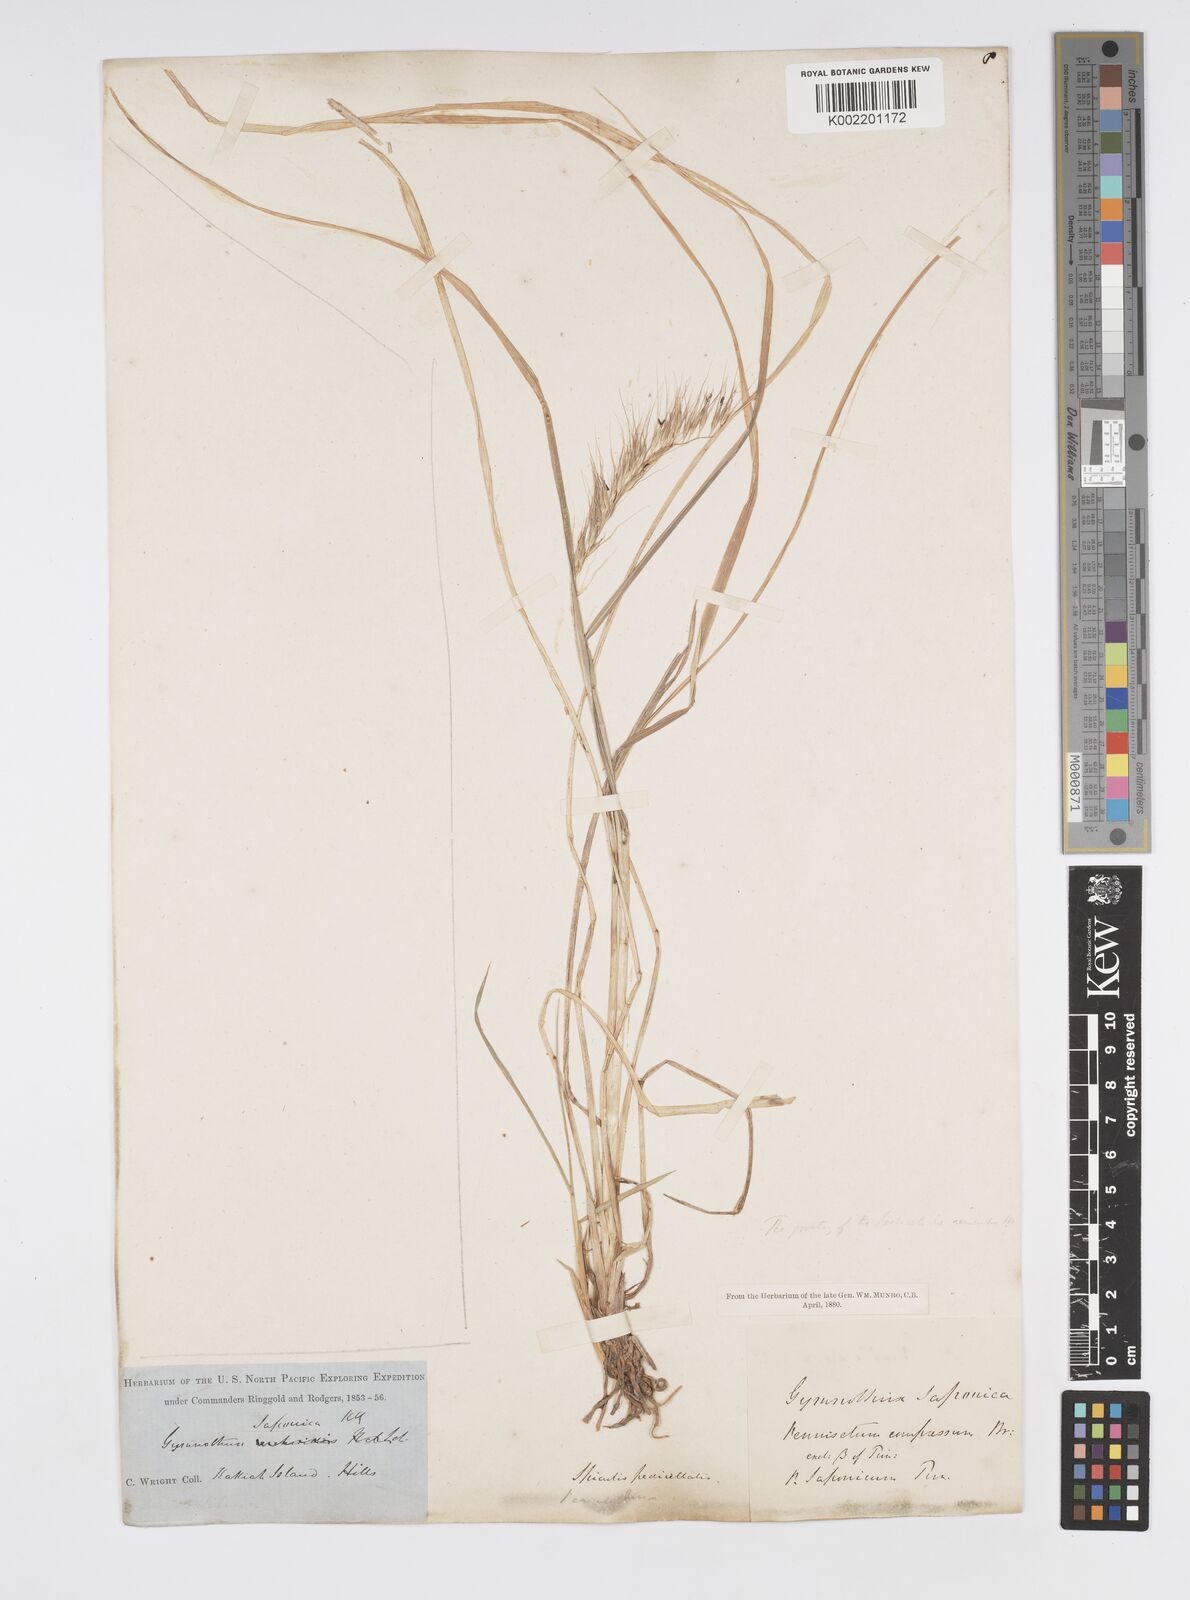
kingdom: Plantae
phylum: Tracheophyta
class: Liliopsida
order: Poales
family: Poaceae
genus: Cenchrus
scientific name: Cenchrus alopecuroides
